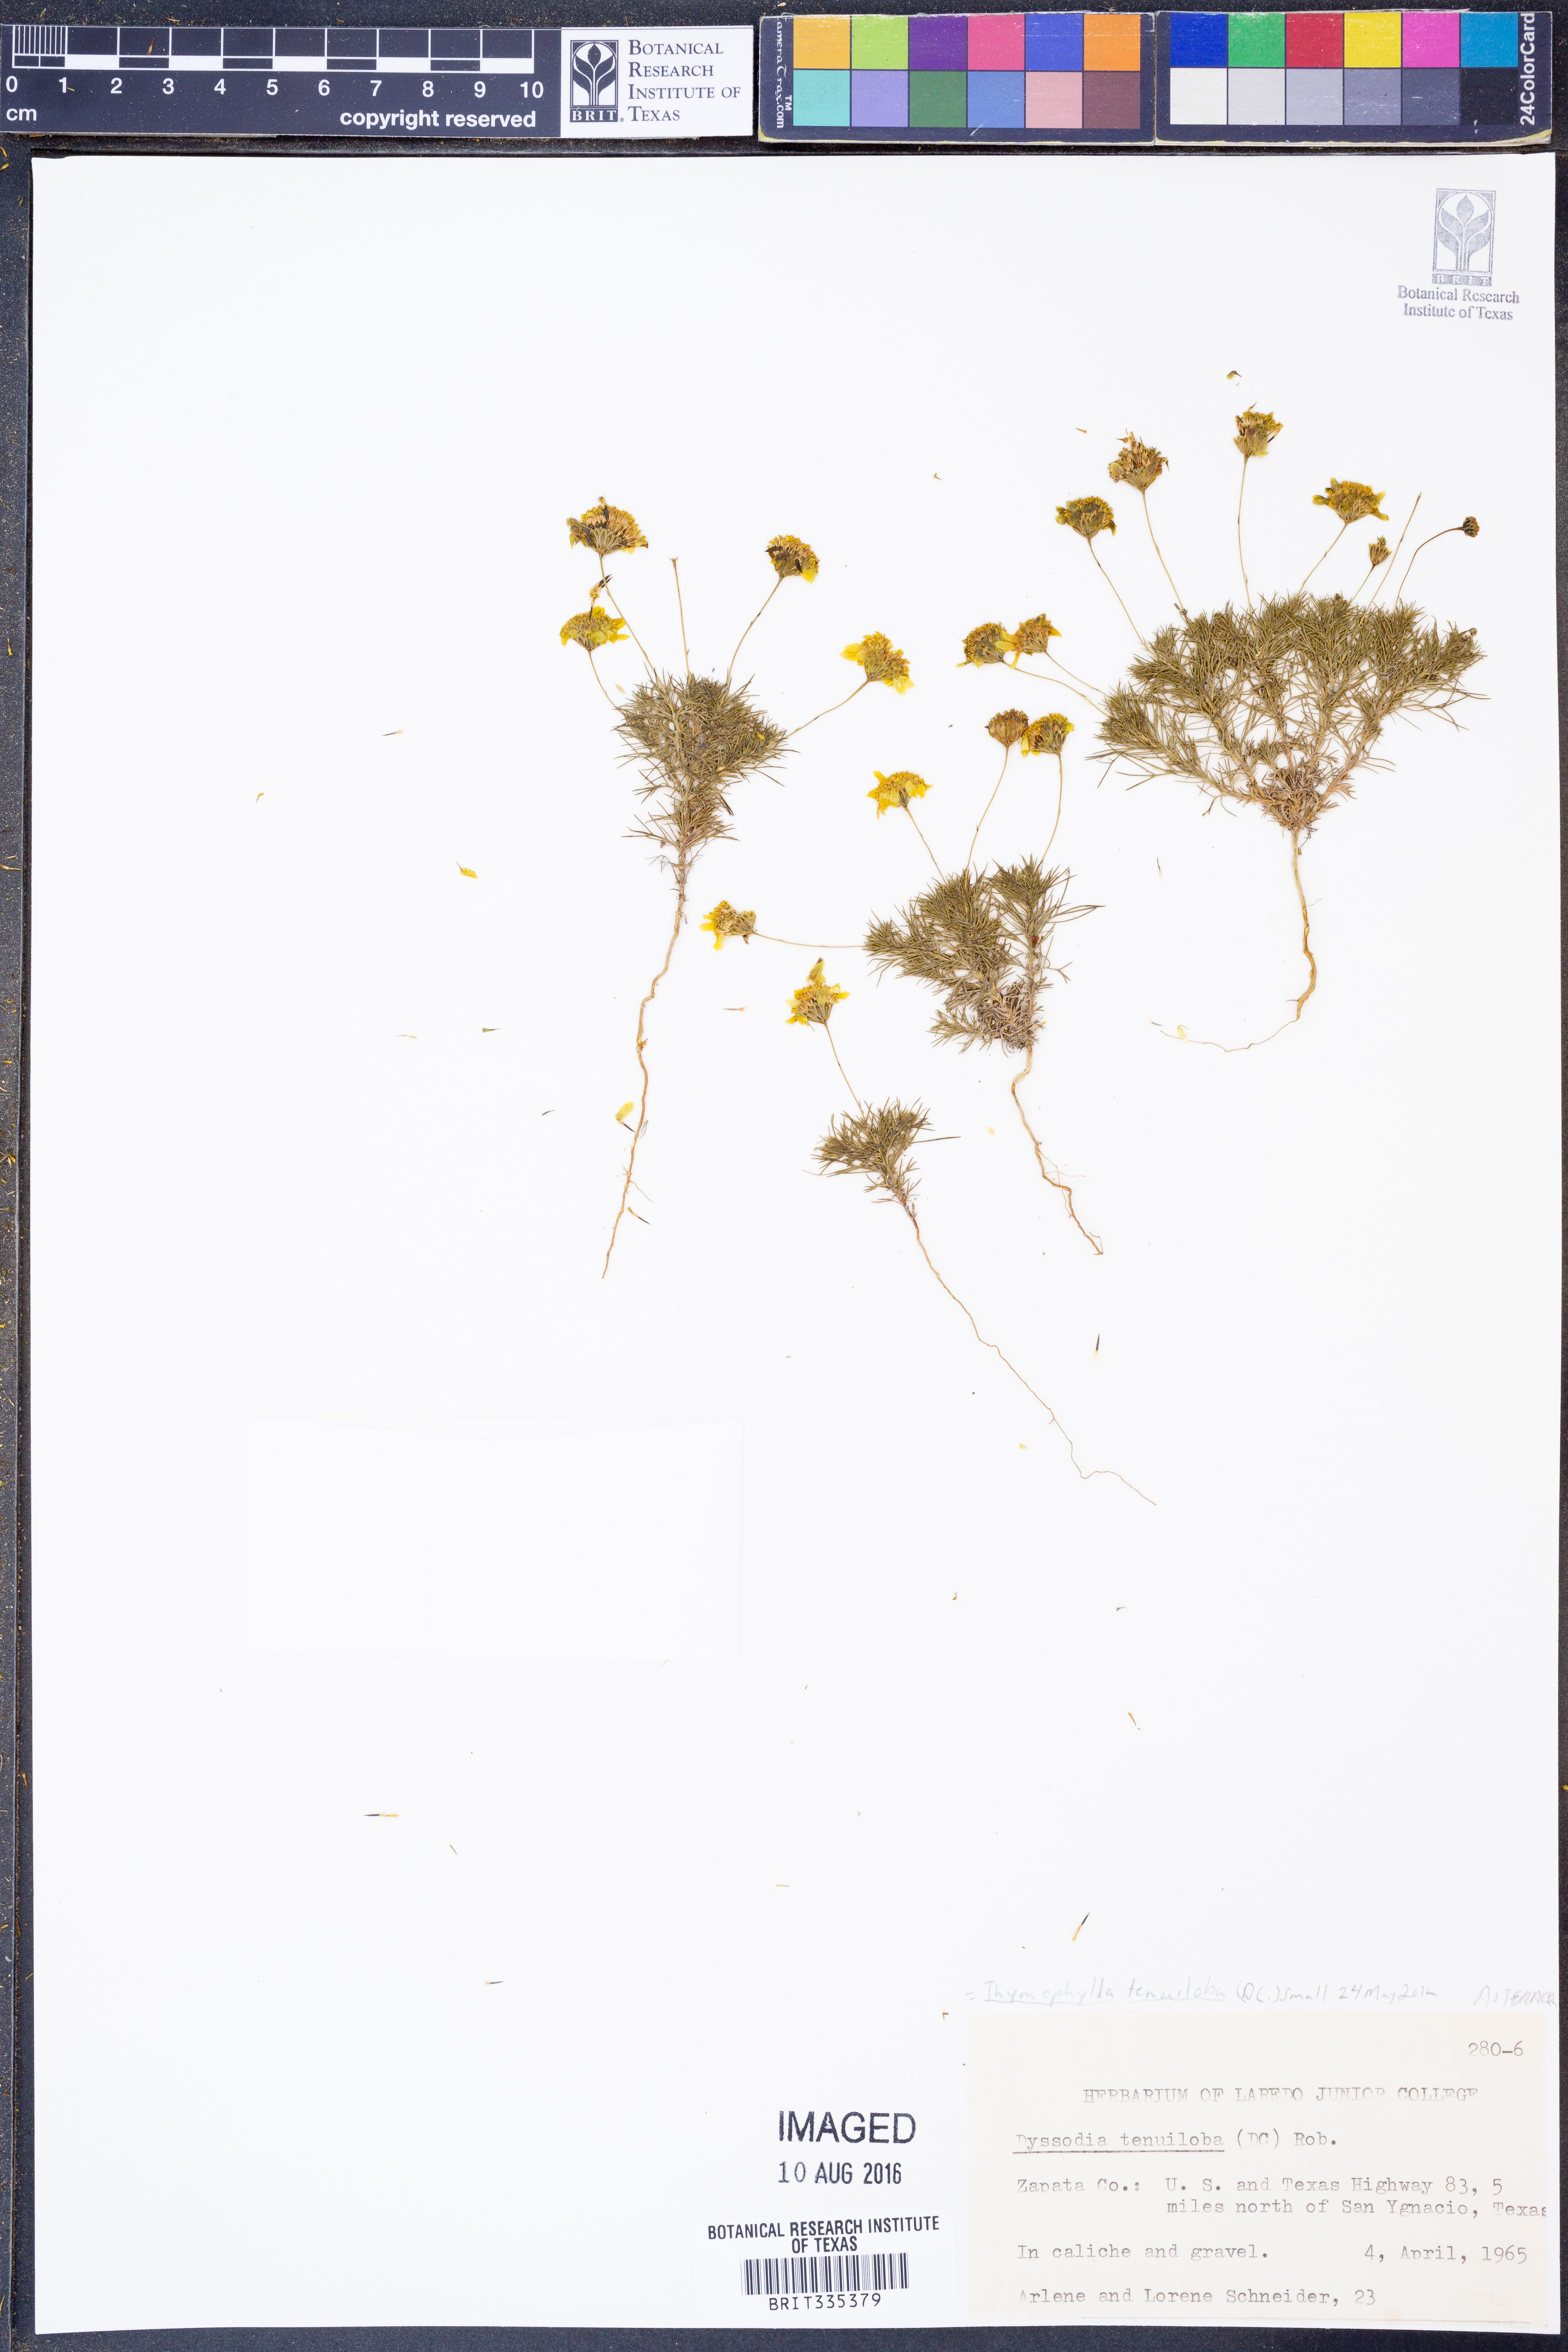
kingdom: Plantae
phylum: Tracheophyta
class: Magnoliopsida
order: Asterales
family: Asteraceae
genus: Thymophylla
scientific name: Thymophylla tenuiloba
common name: Dahlberg's daisy
